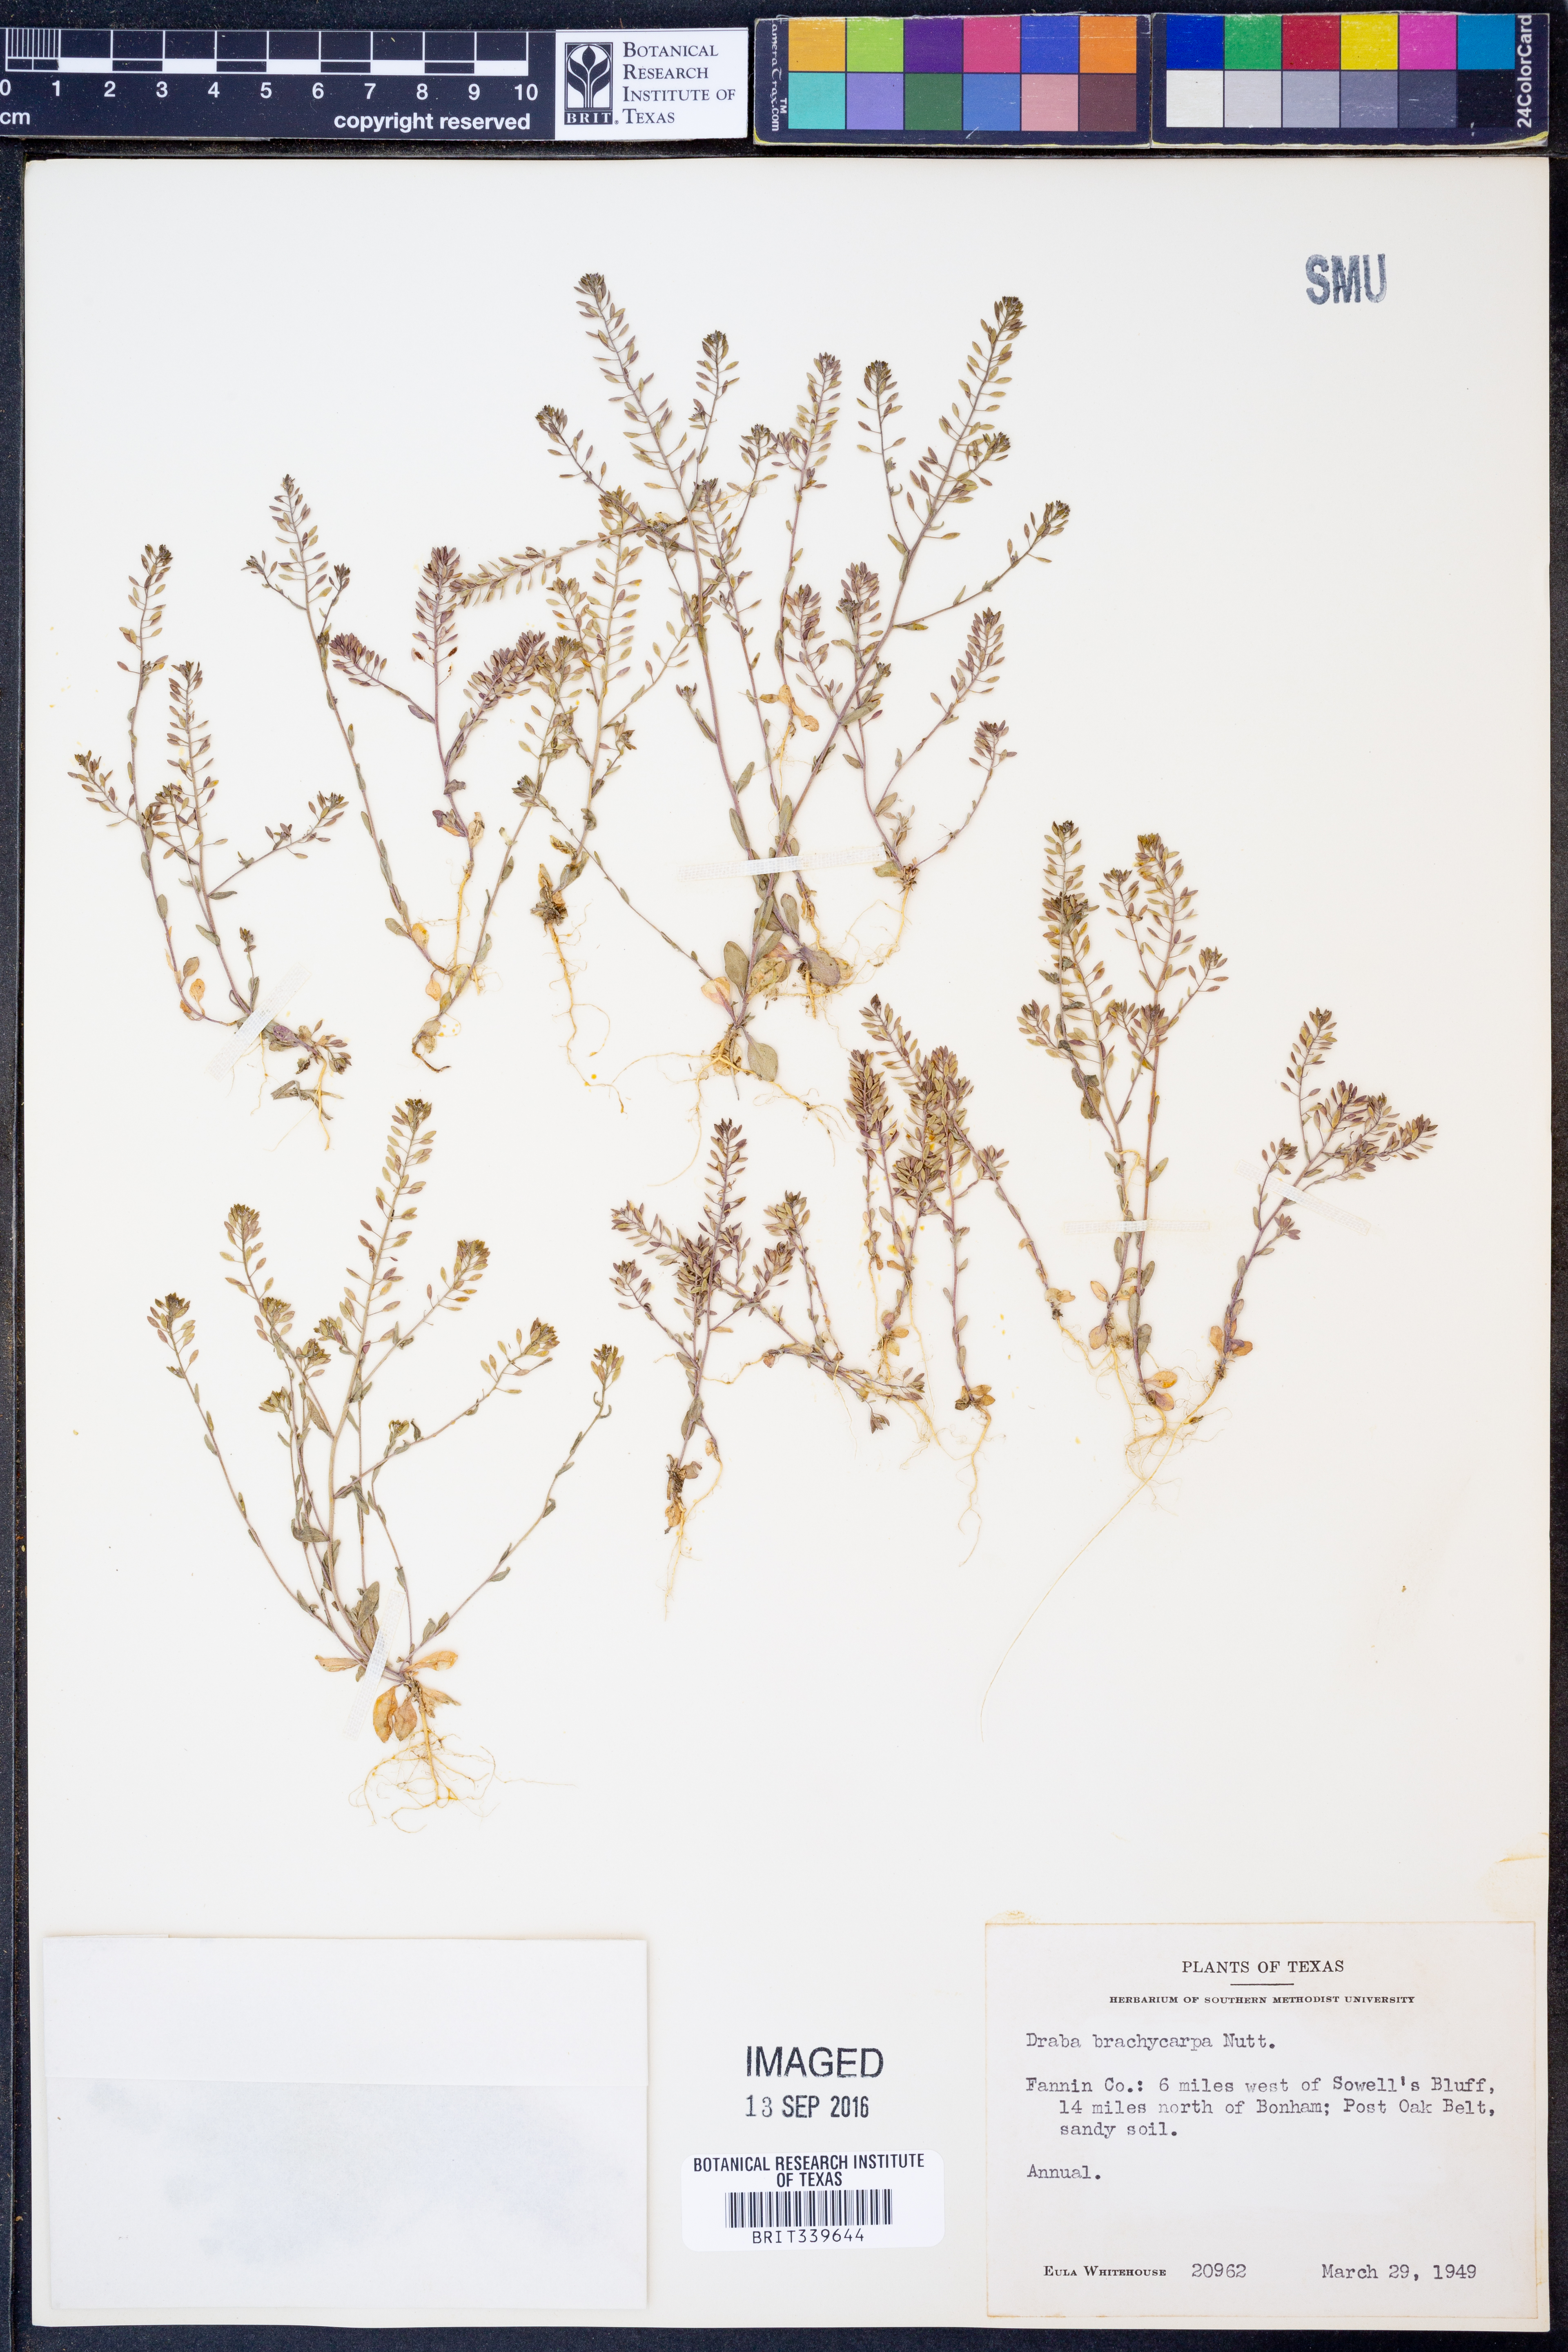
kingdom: Plantae
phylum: Tracheophyta
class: Magnoliopsida
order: Brassicales
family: Brassicaceae
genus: Abdra
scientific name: Abdra brachycarpa
